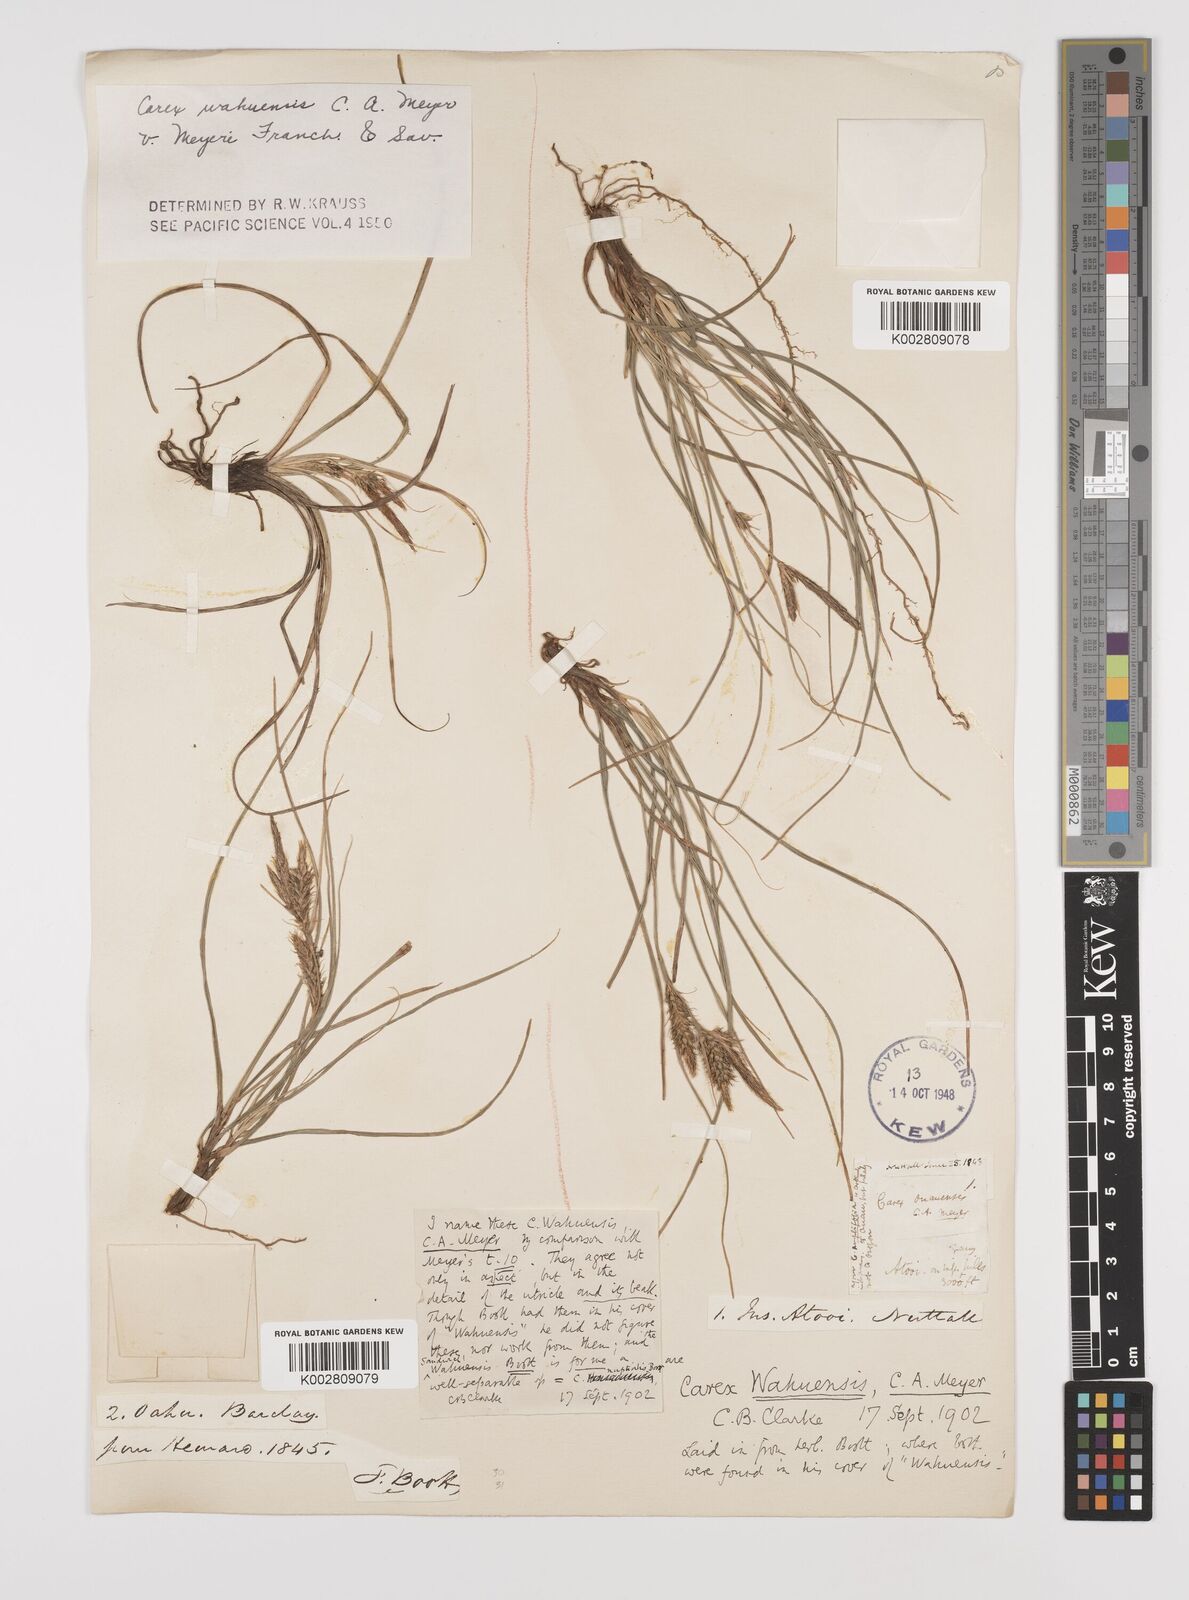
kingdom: Plantae
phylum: Tracheophyta
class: Liliopsida
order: Poales
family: Cyperaceae
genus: Carex
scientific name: Carex wahuensis
